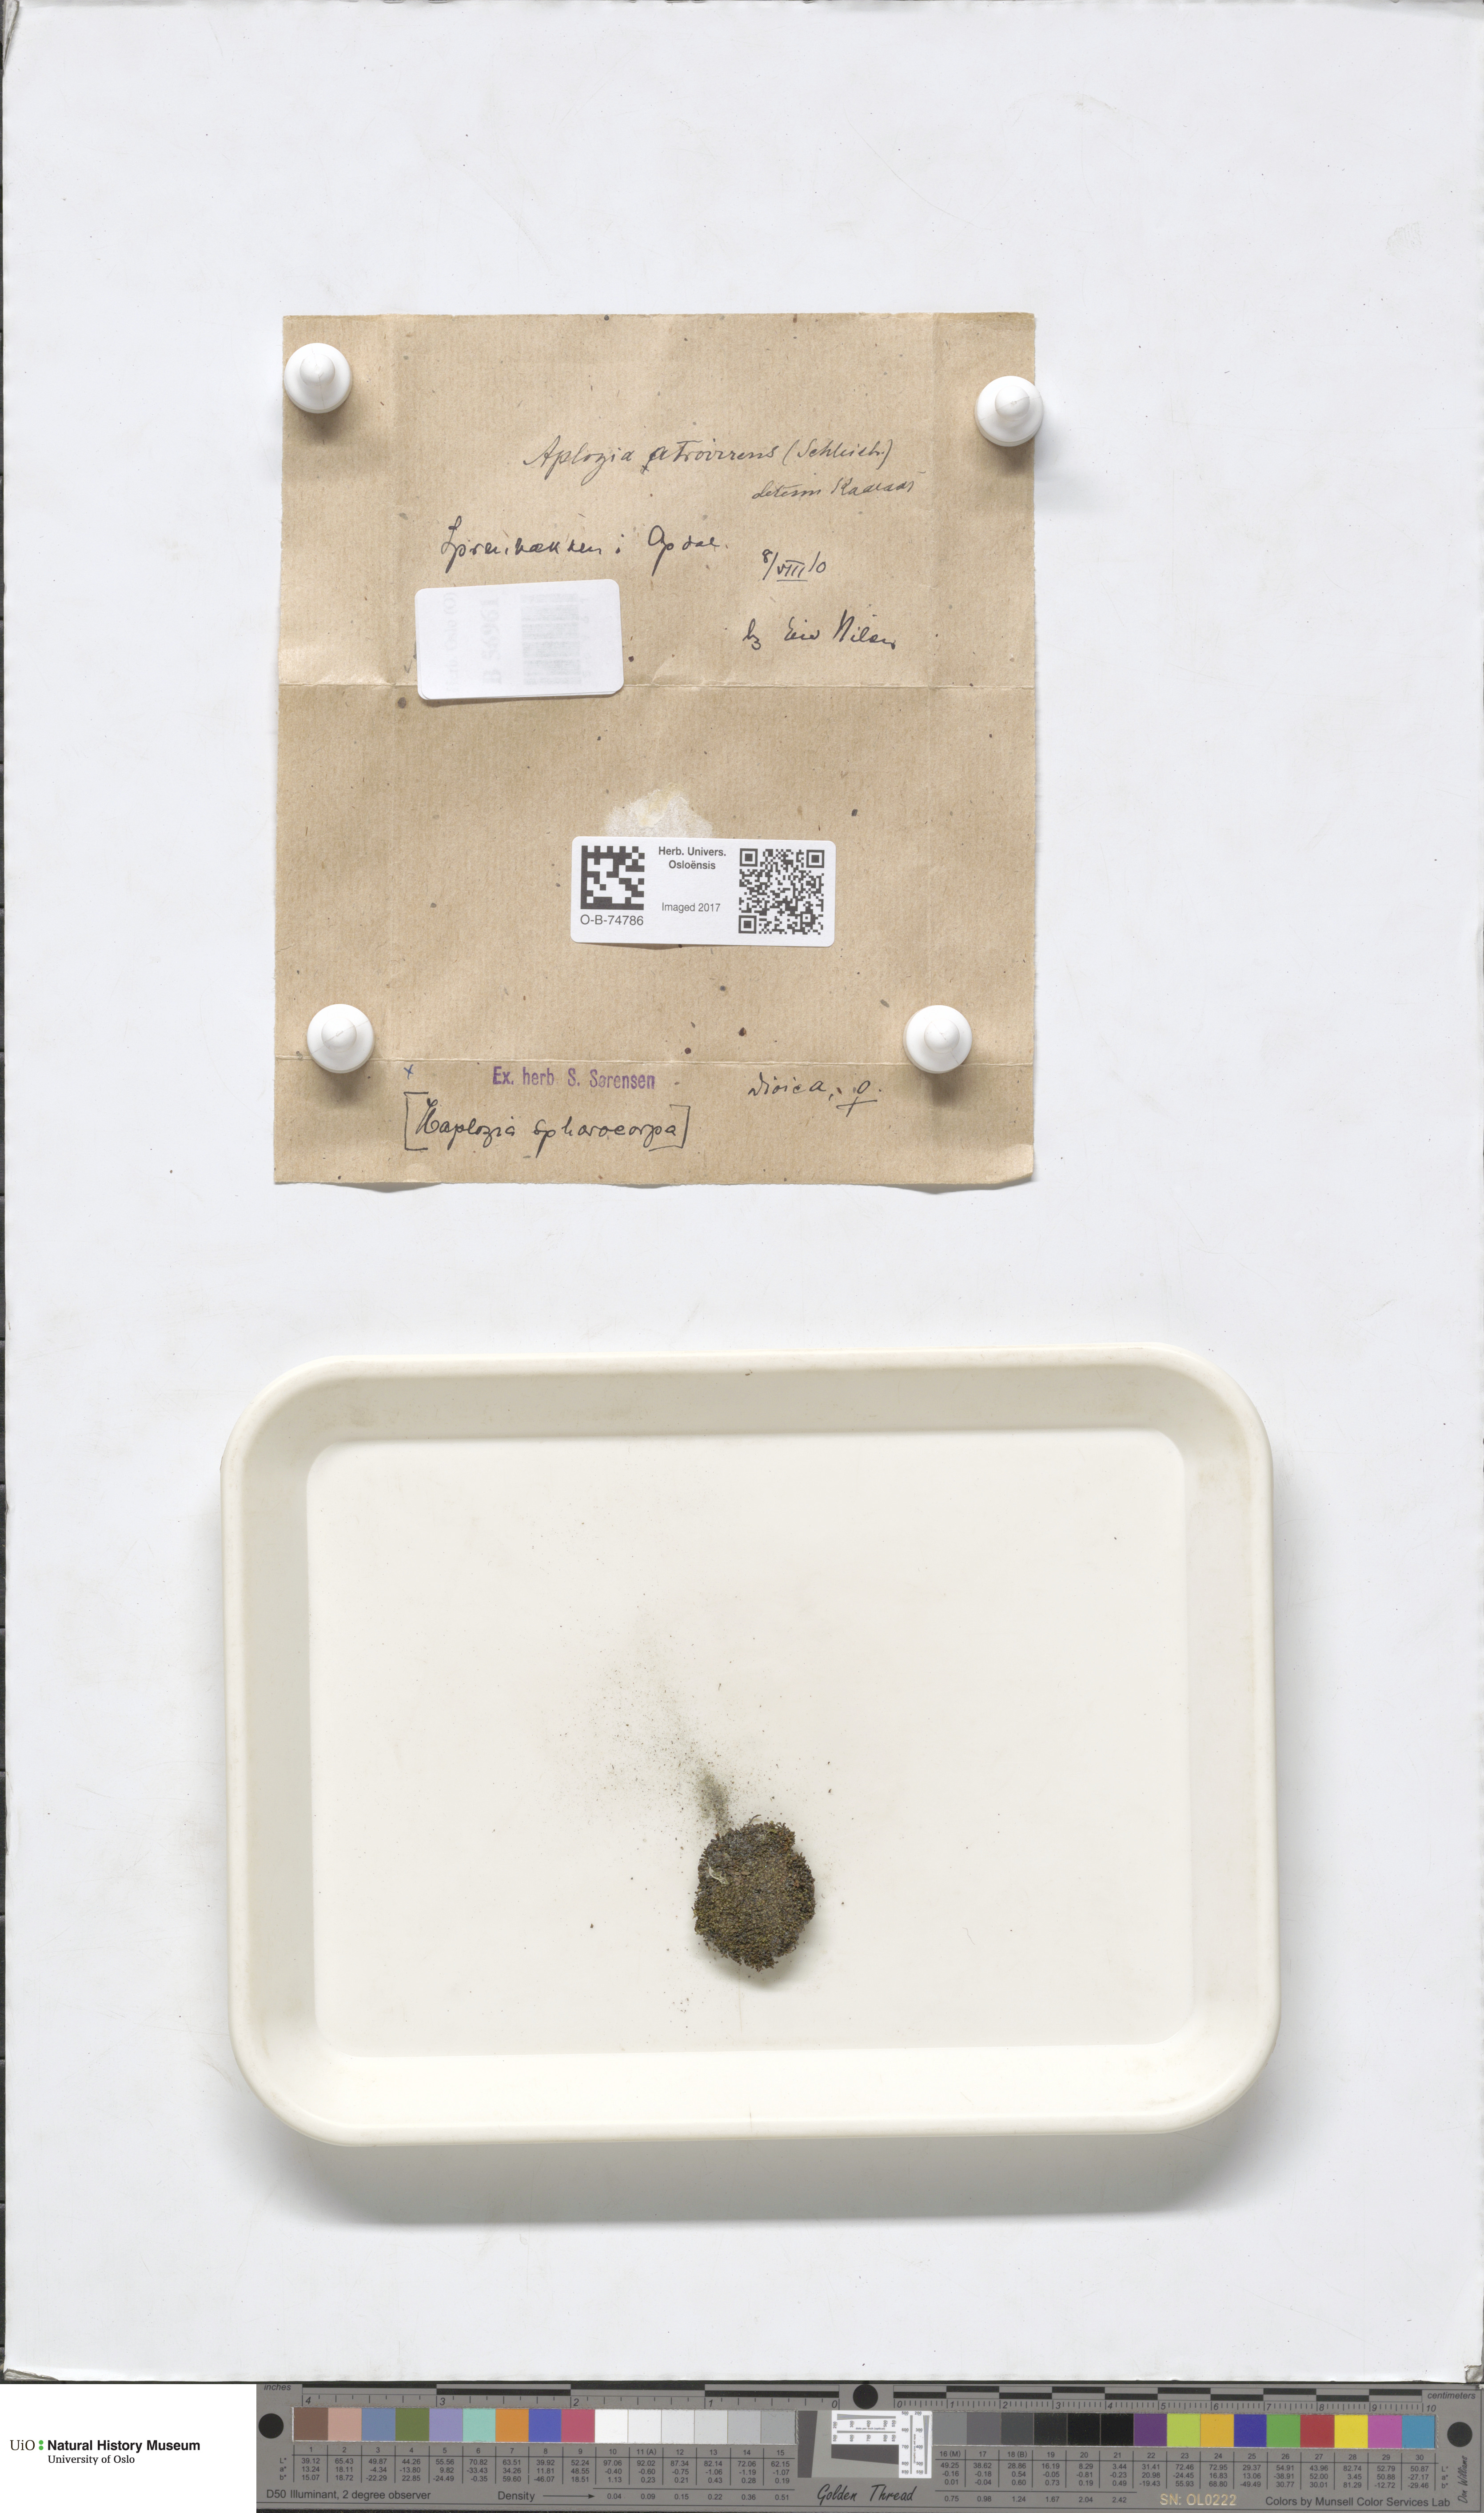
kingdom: Plantae
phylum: Marchantiophyta
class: Jungermanniopsida
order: Jungermanniales
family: Jungermanniaceae
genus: Jungermannia
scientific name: Jungermannia atrovirens
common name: Dark-green flapwort
